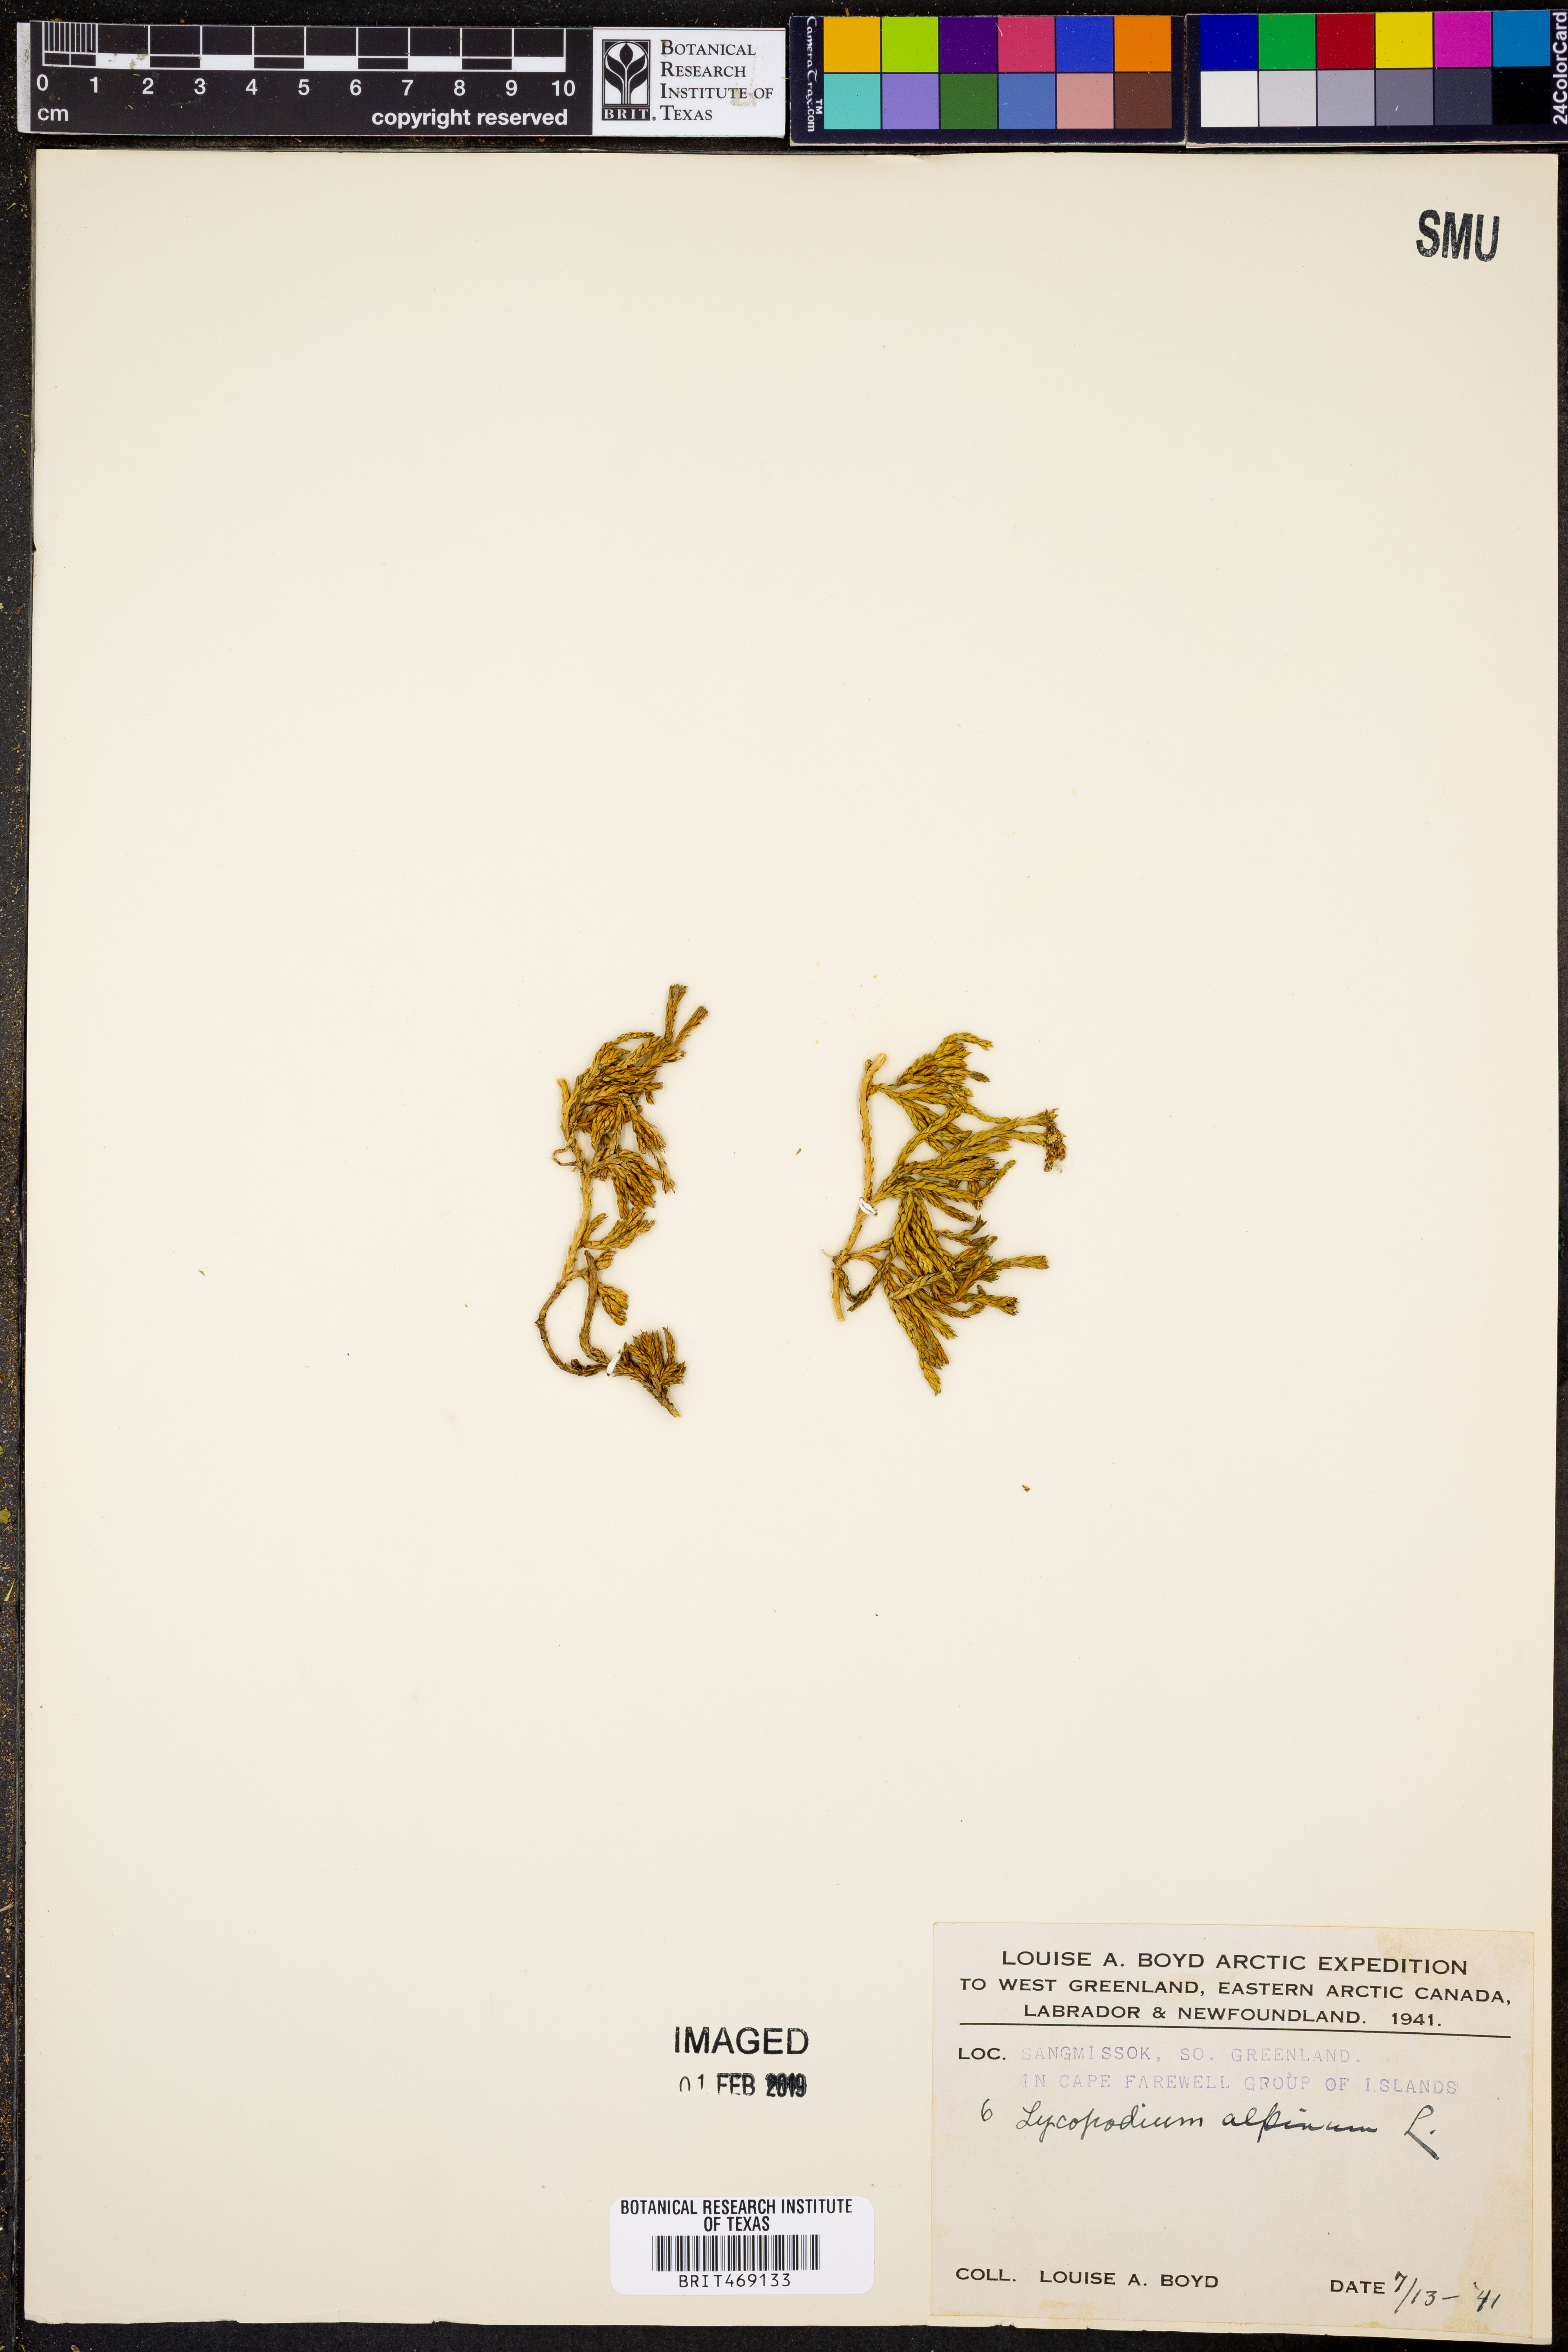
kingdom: Plantae
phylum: Tracheophyta
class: Lycopodiopsida
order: Lycopodiales
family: Lycopodiaceae
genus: Diphasiastrum
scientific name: Diphasiastrum alpinum
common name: Alpine clubmoss
